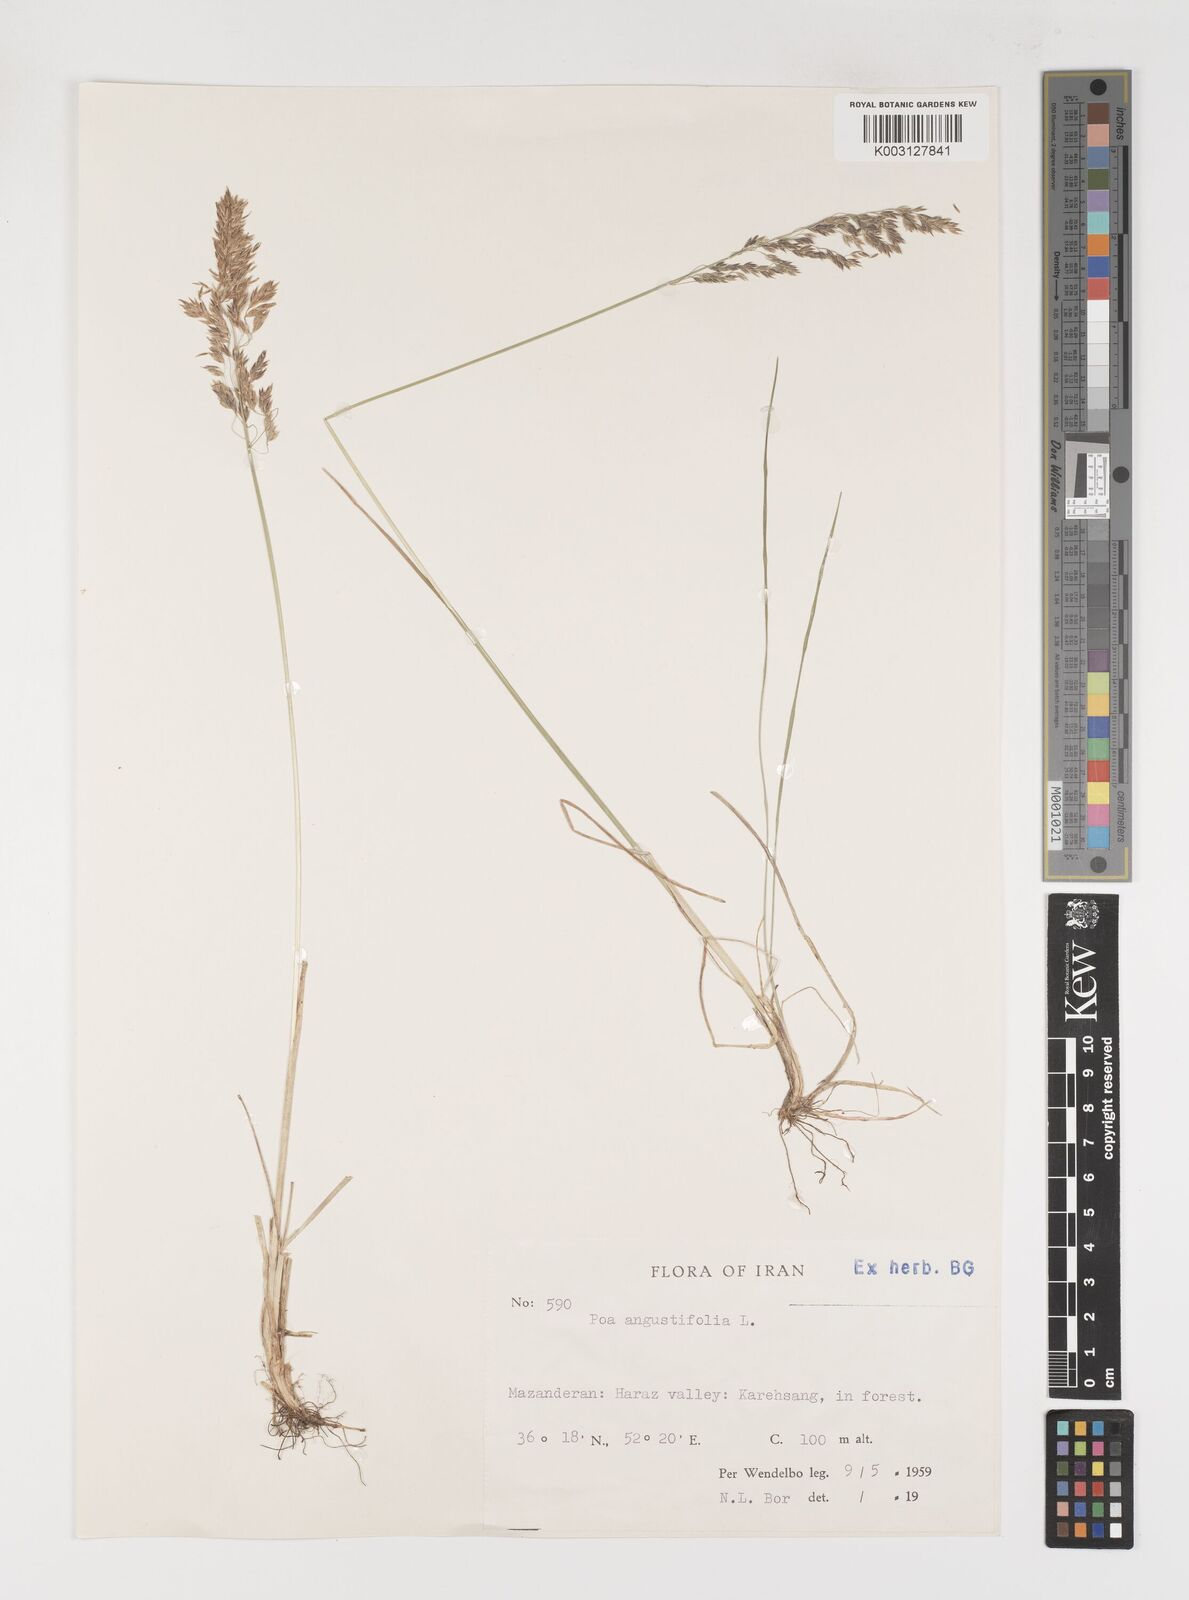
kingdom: Plantae
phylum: Tracheophyta
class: Liliopsida
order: Poales
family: Poaceae
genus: Poa
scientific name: Poa angustifolia
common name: Narrow-leaved meadow-grass
